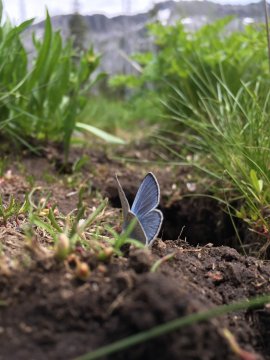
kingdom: Animalia
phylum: Arthropoda
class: Insecta
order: Lepidoptera
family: Lycaenidae
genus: Glaucopsyche
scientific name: Glaucopsyche lygdamus
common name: Silvery Blue
